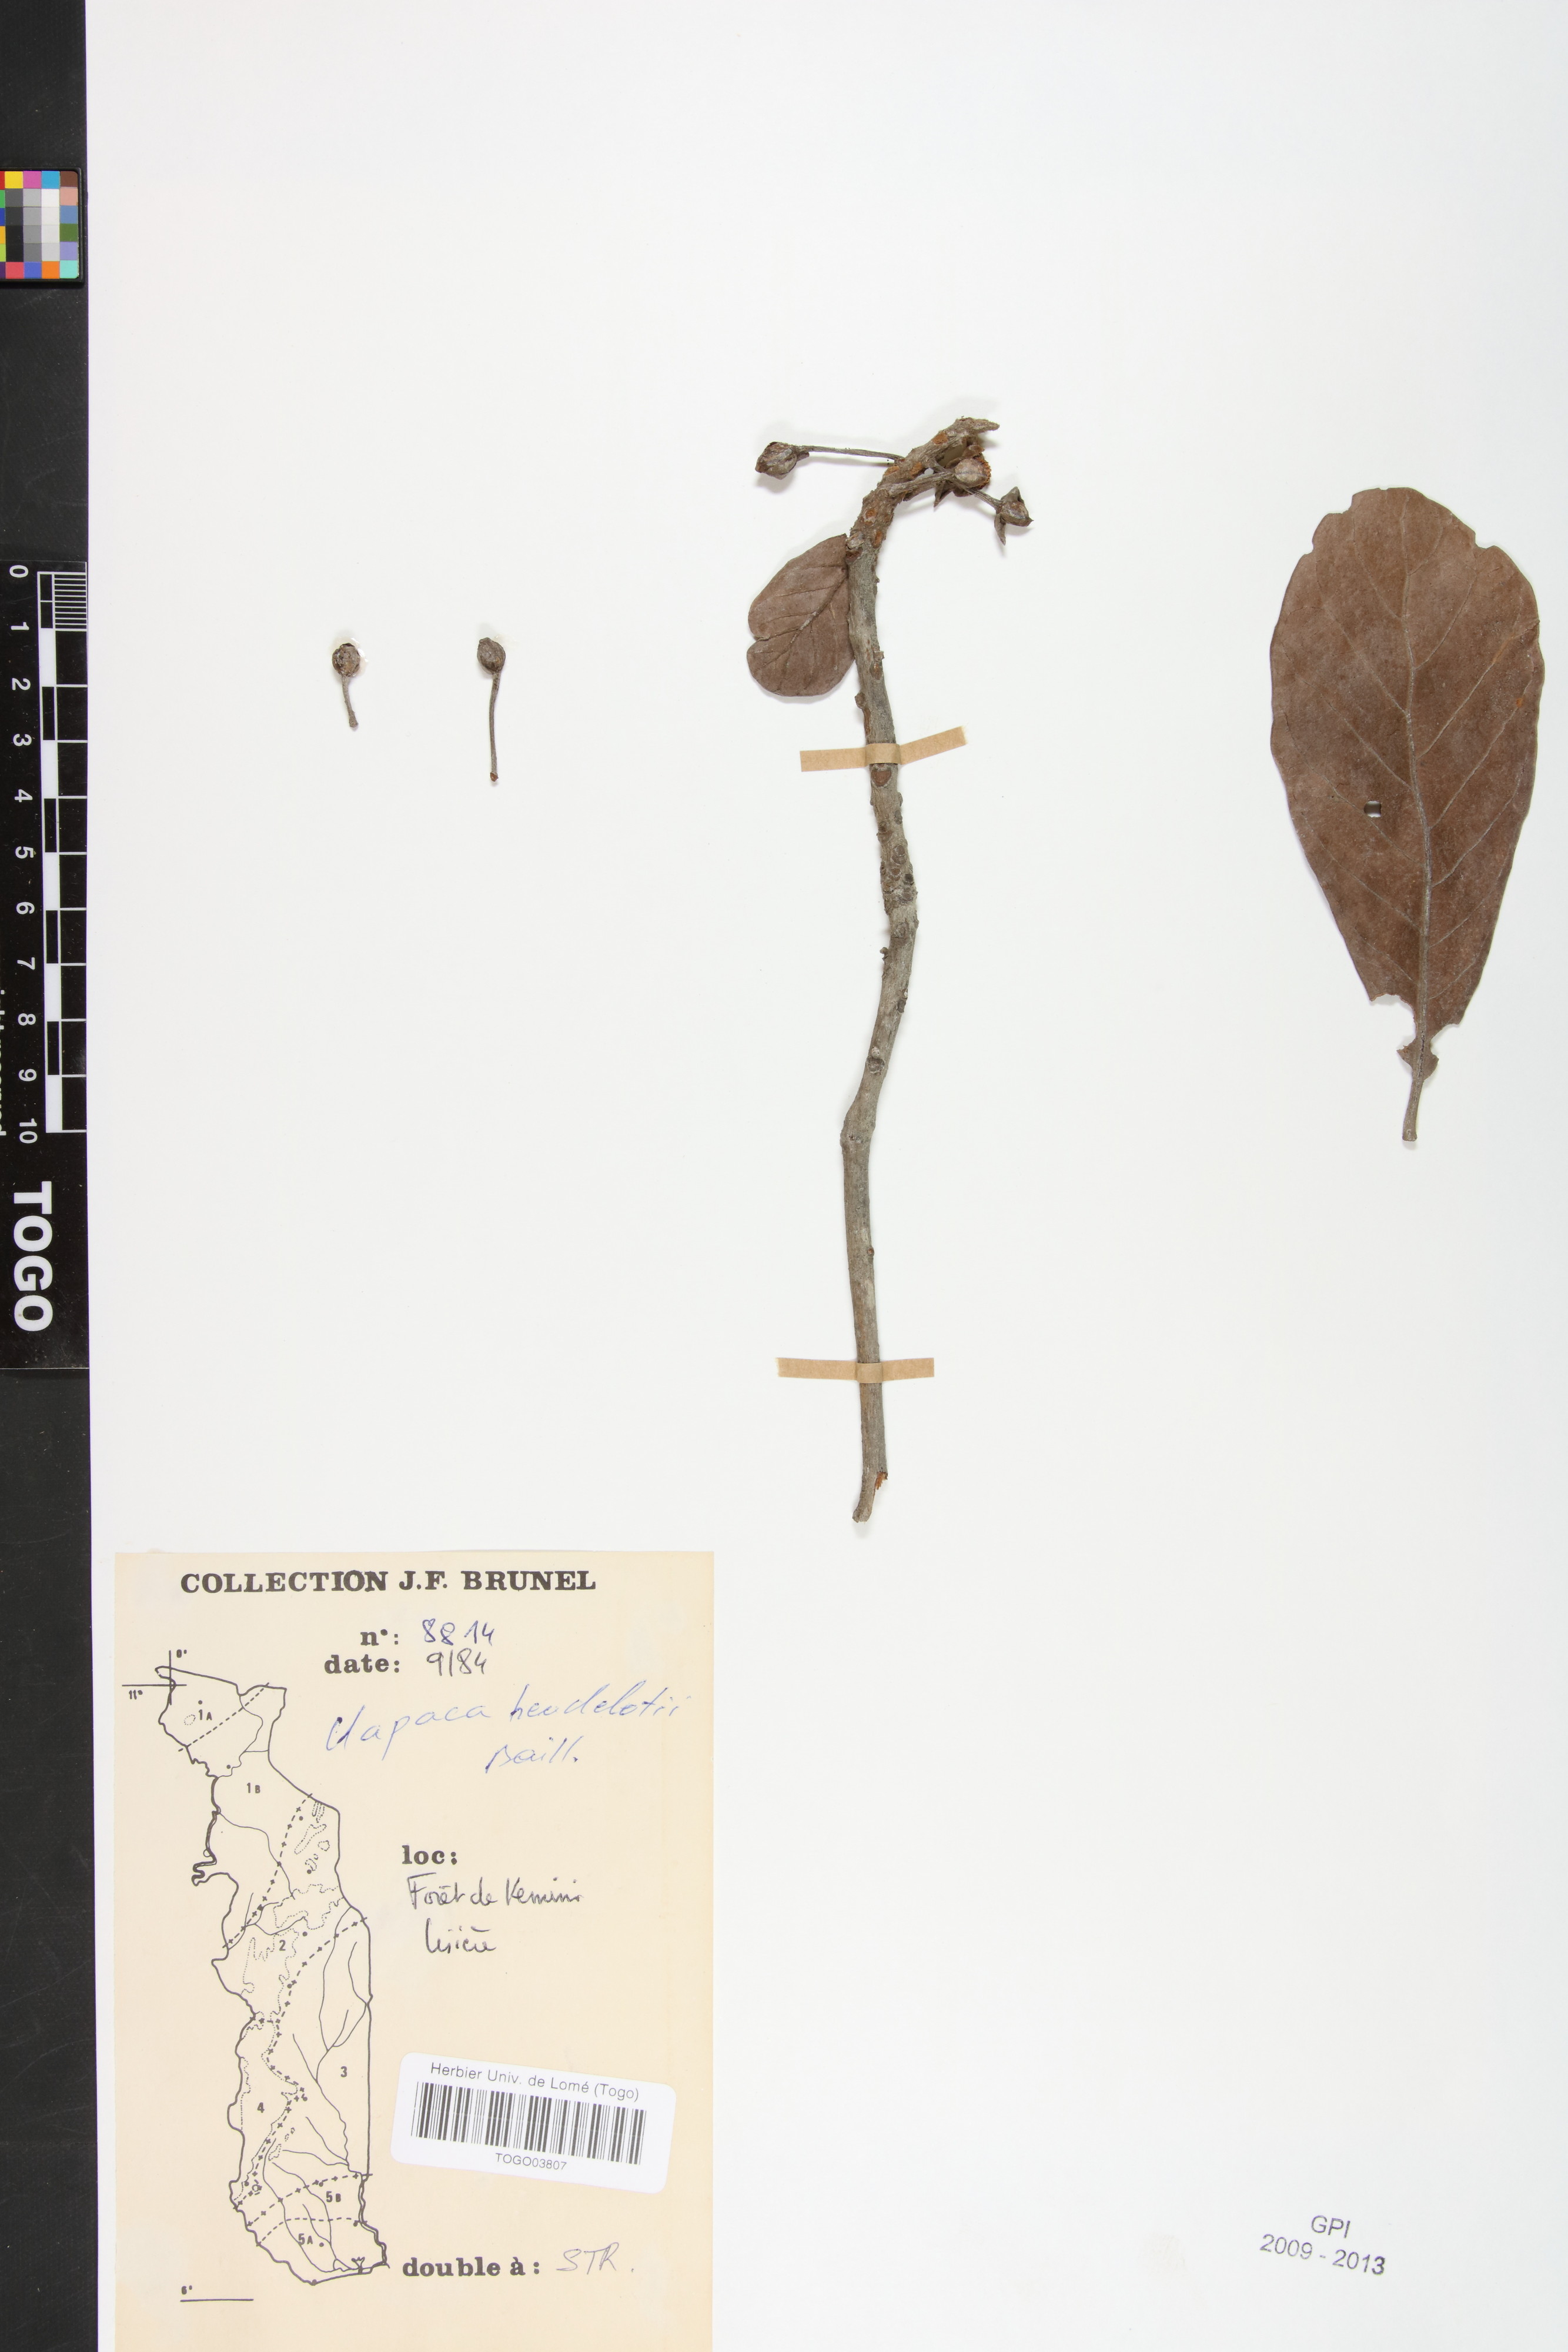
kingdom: Plantae
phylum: Tracheophyta
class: Magnoliopsida
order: Malpighiales
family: Phyllanthaceae
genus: Uapaca
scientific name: Uapaca heudelotii
